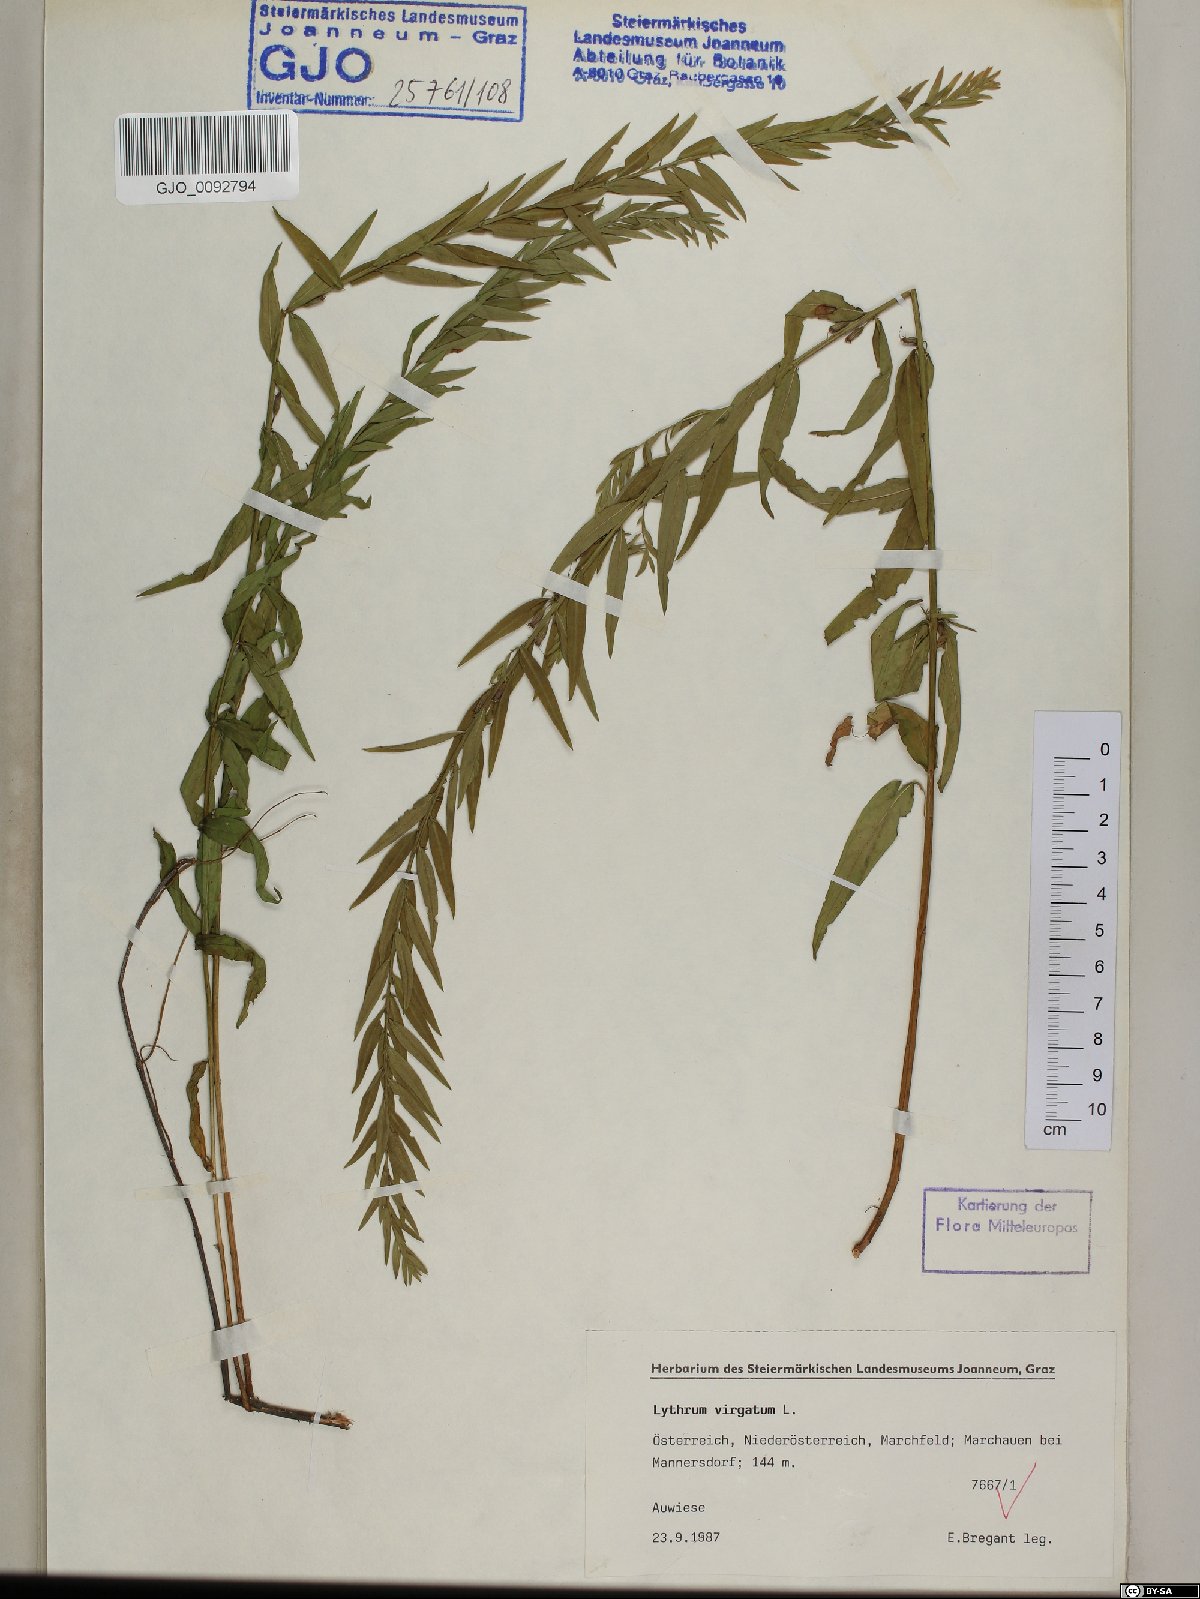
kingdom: Plantae
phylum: Tracheophyta
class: Magnoliopsida
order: Myrtales
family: Lythraceae
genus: Lythrum
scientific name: Lythrum virgatum
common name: European wand loosestrife
